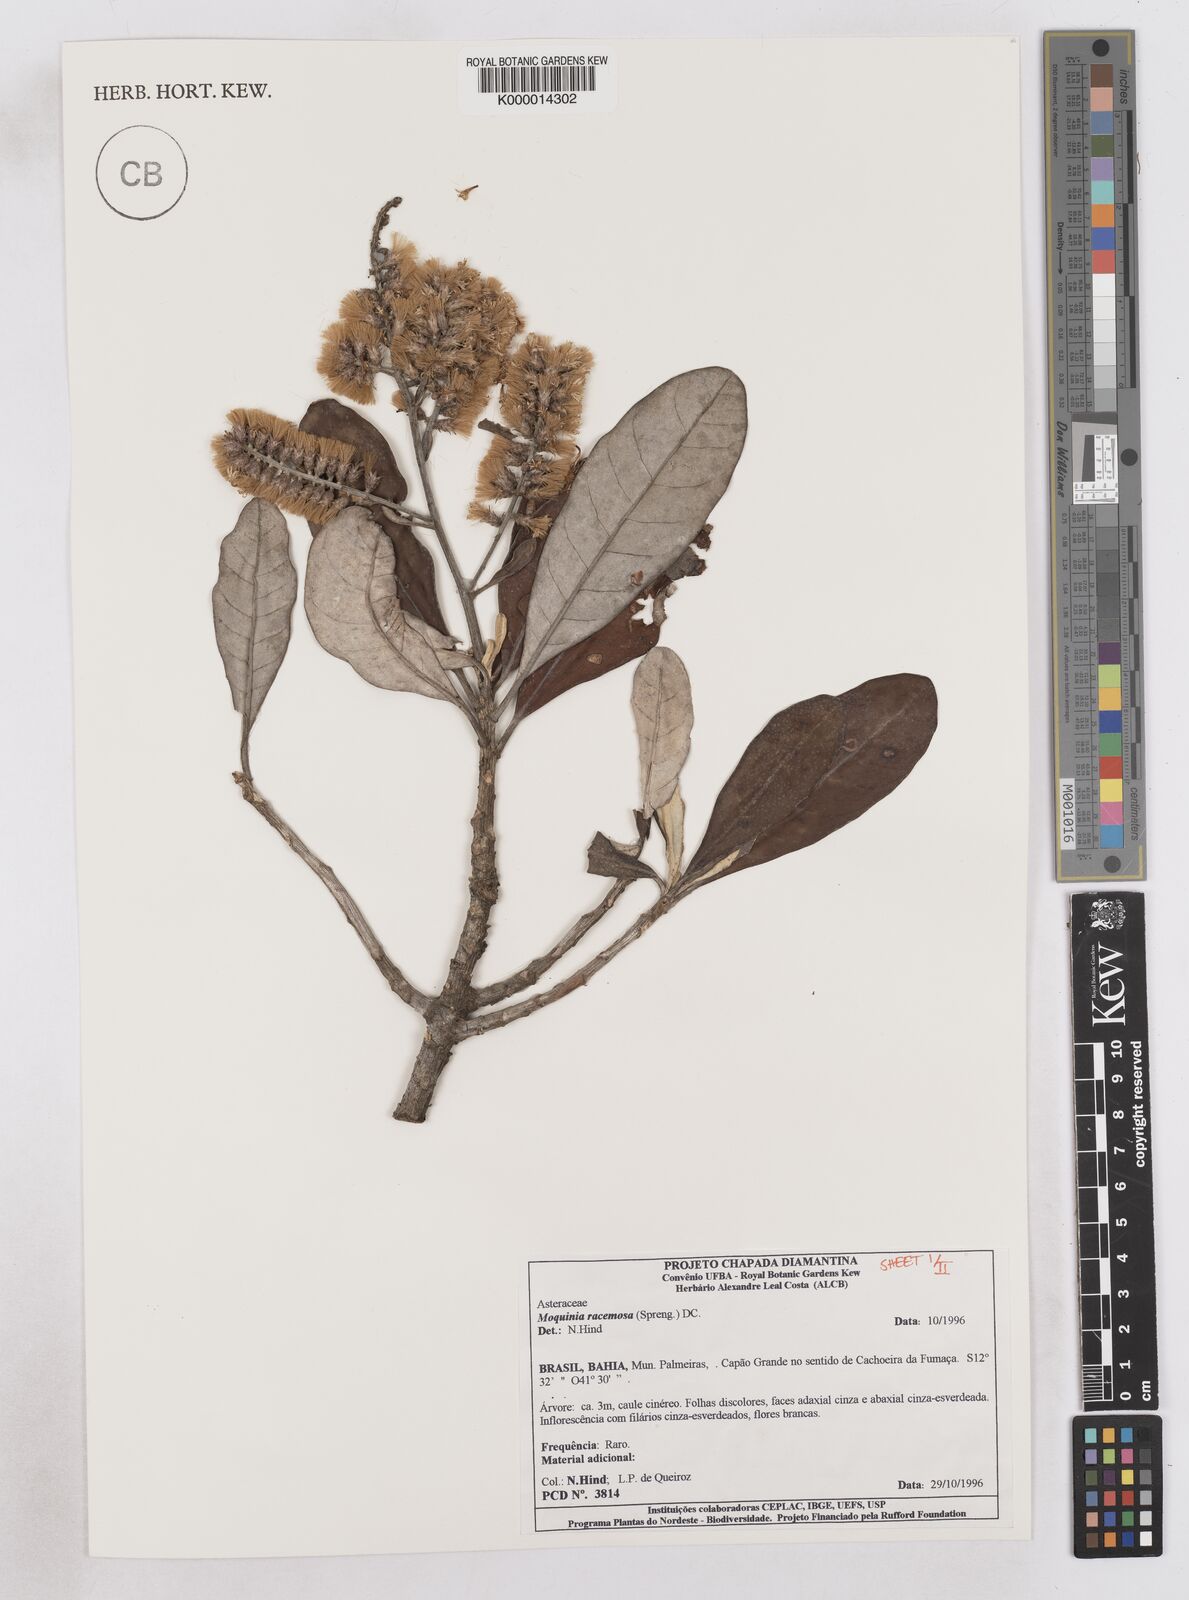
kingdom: Plantae
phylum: Tracheophyta
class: Magnoliopsida
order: Asterales
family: Asteraceae
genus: Moquinia
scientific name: Moquinia racemosa
